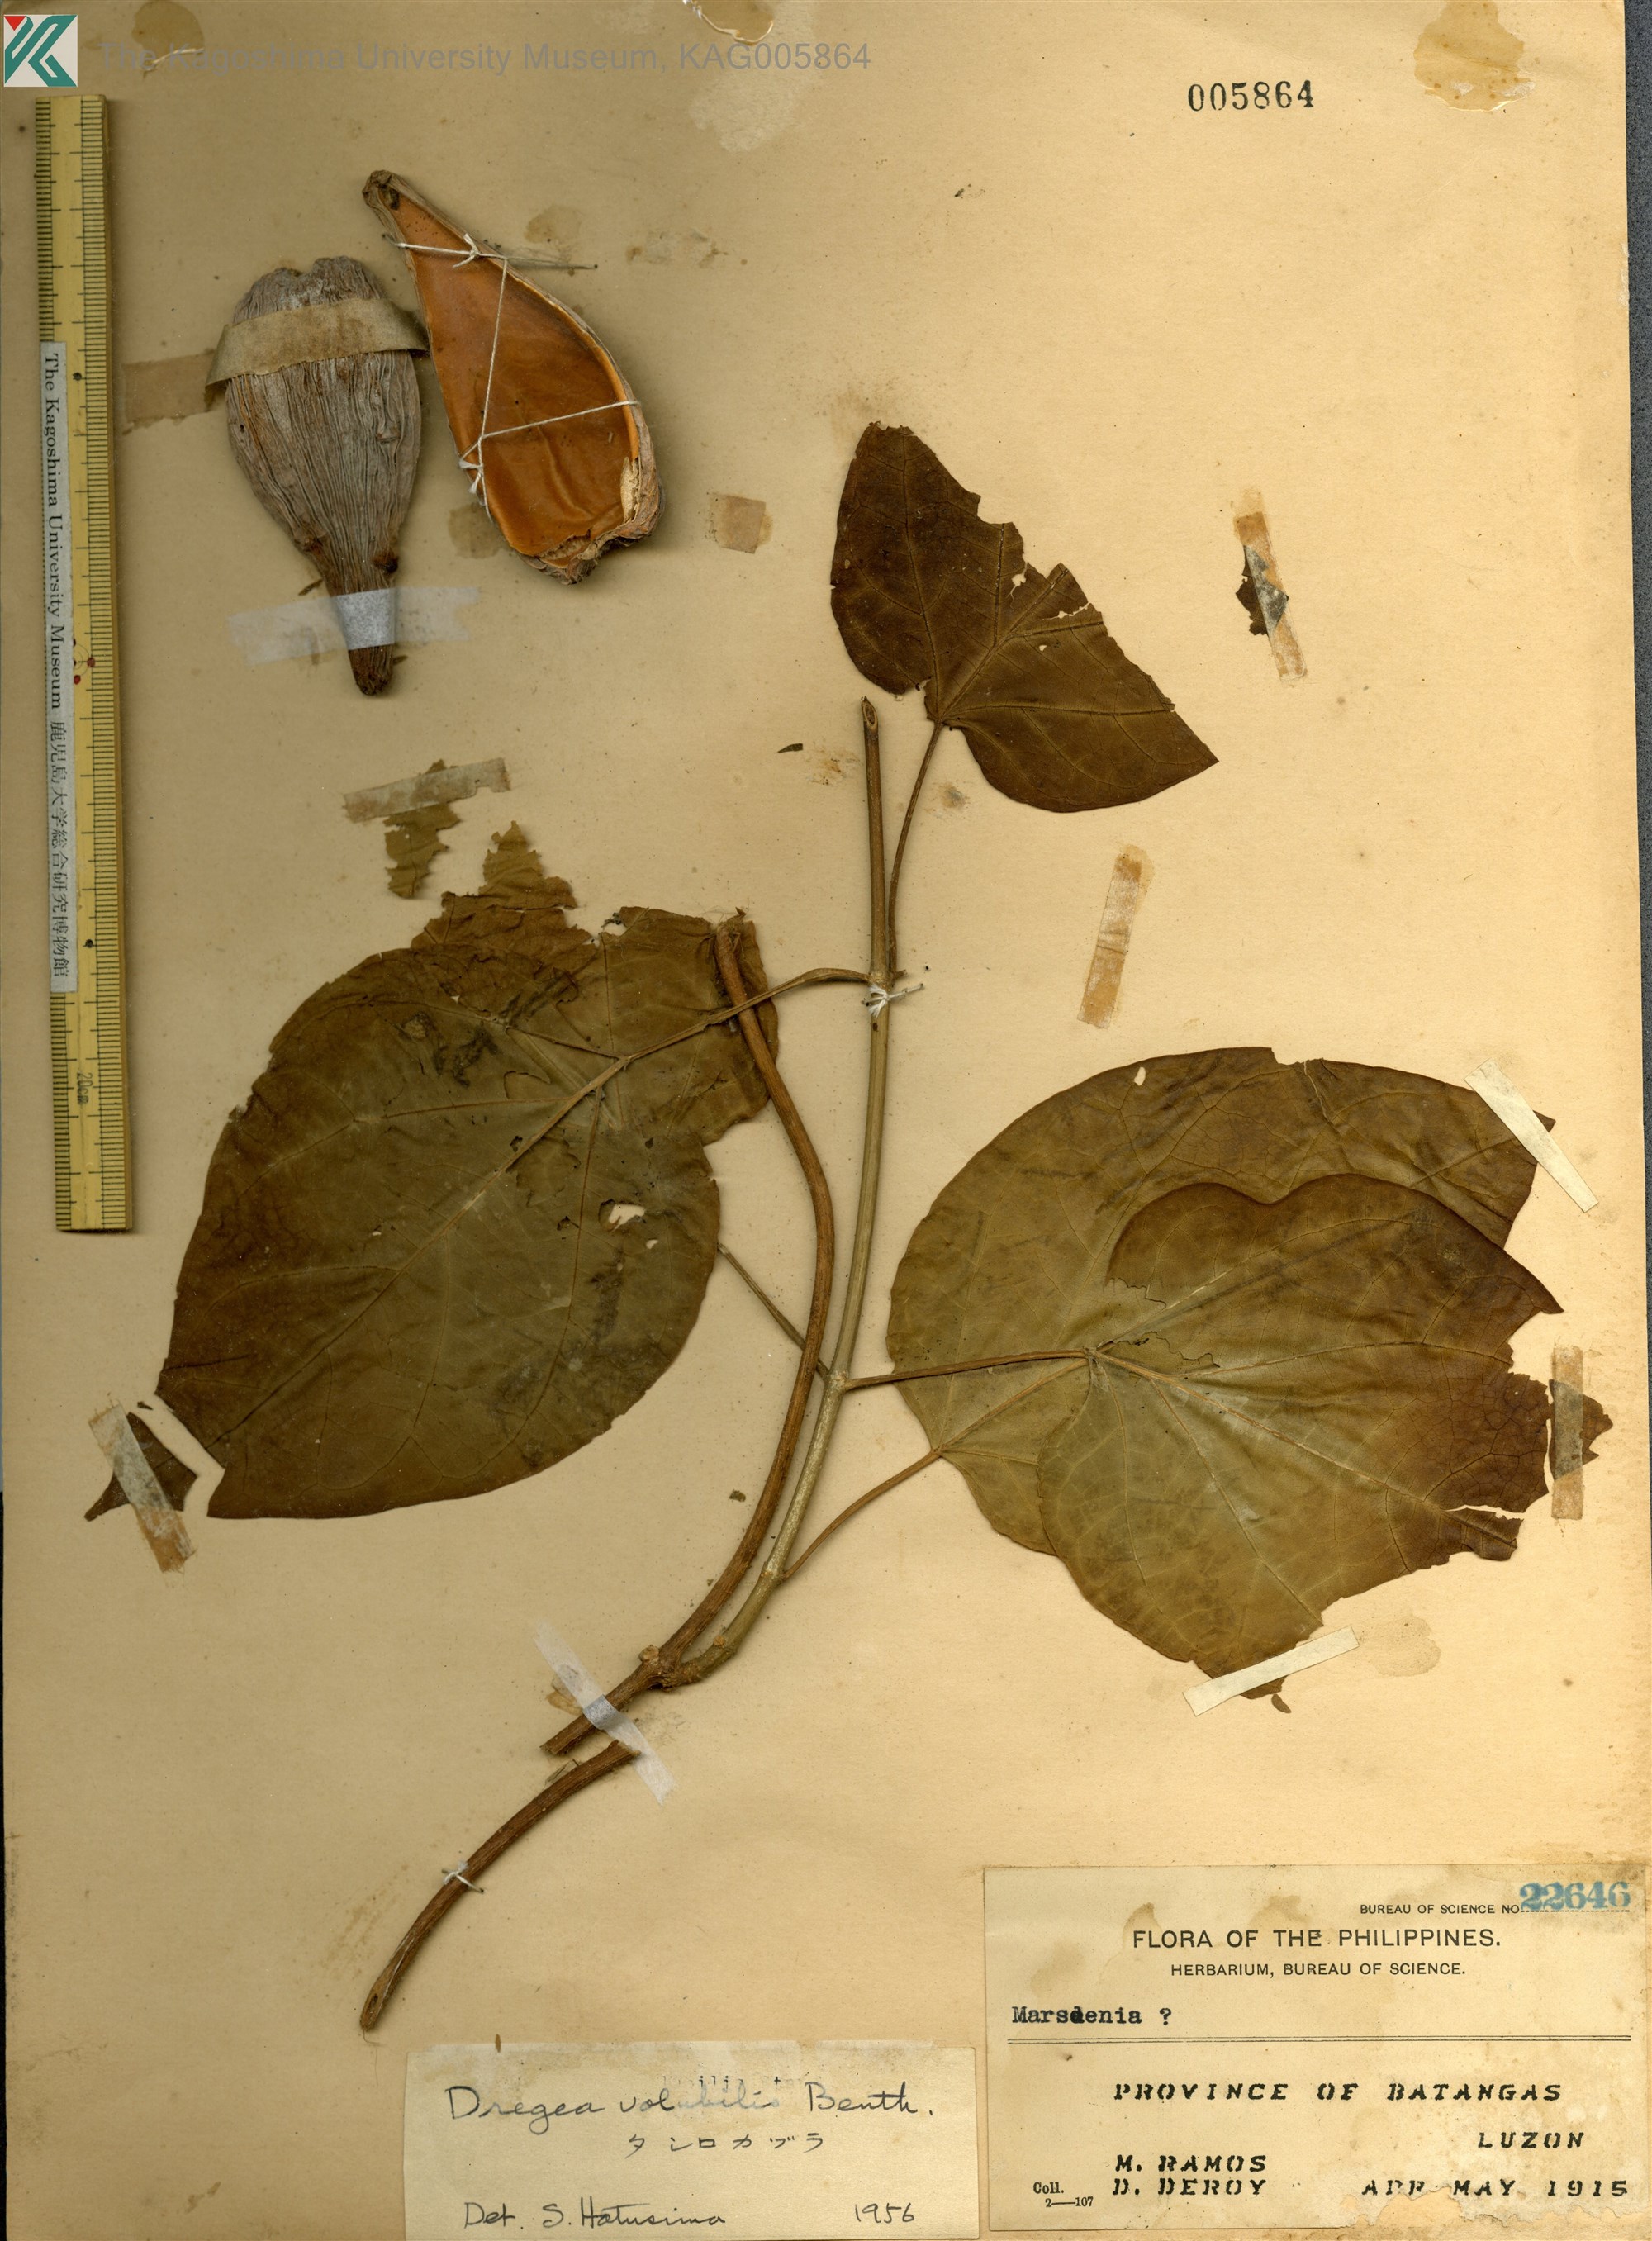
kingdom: Plantae
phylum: Tracheophyta
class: Magnoliopsida
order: Gentianales
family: Apocynaceae
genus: Stephanotis
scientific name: Stephanotis volubilis
